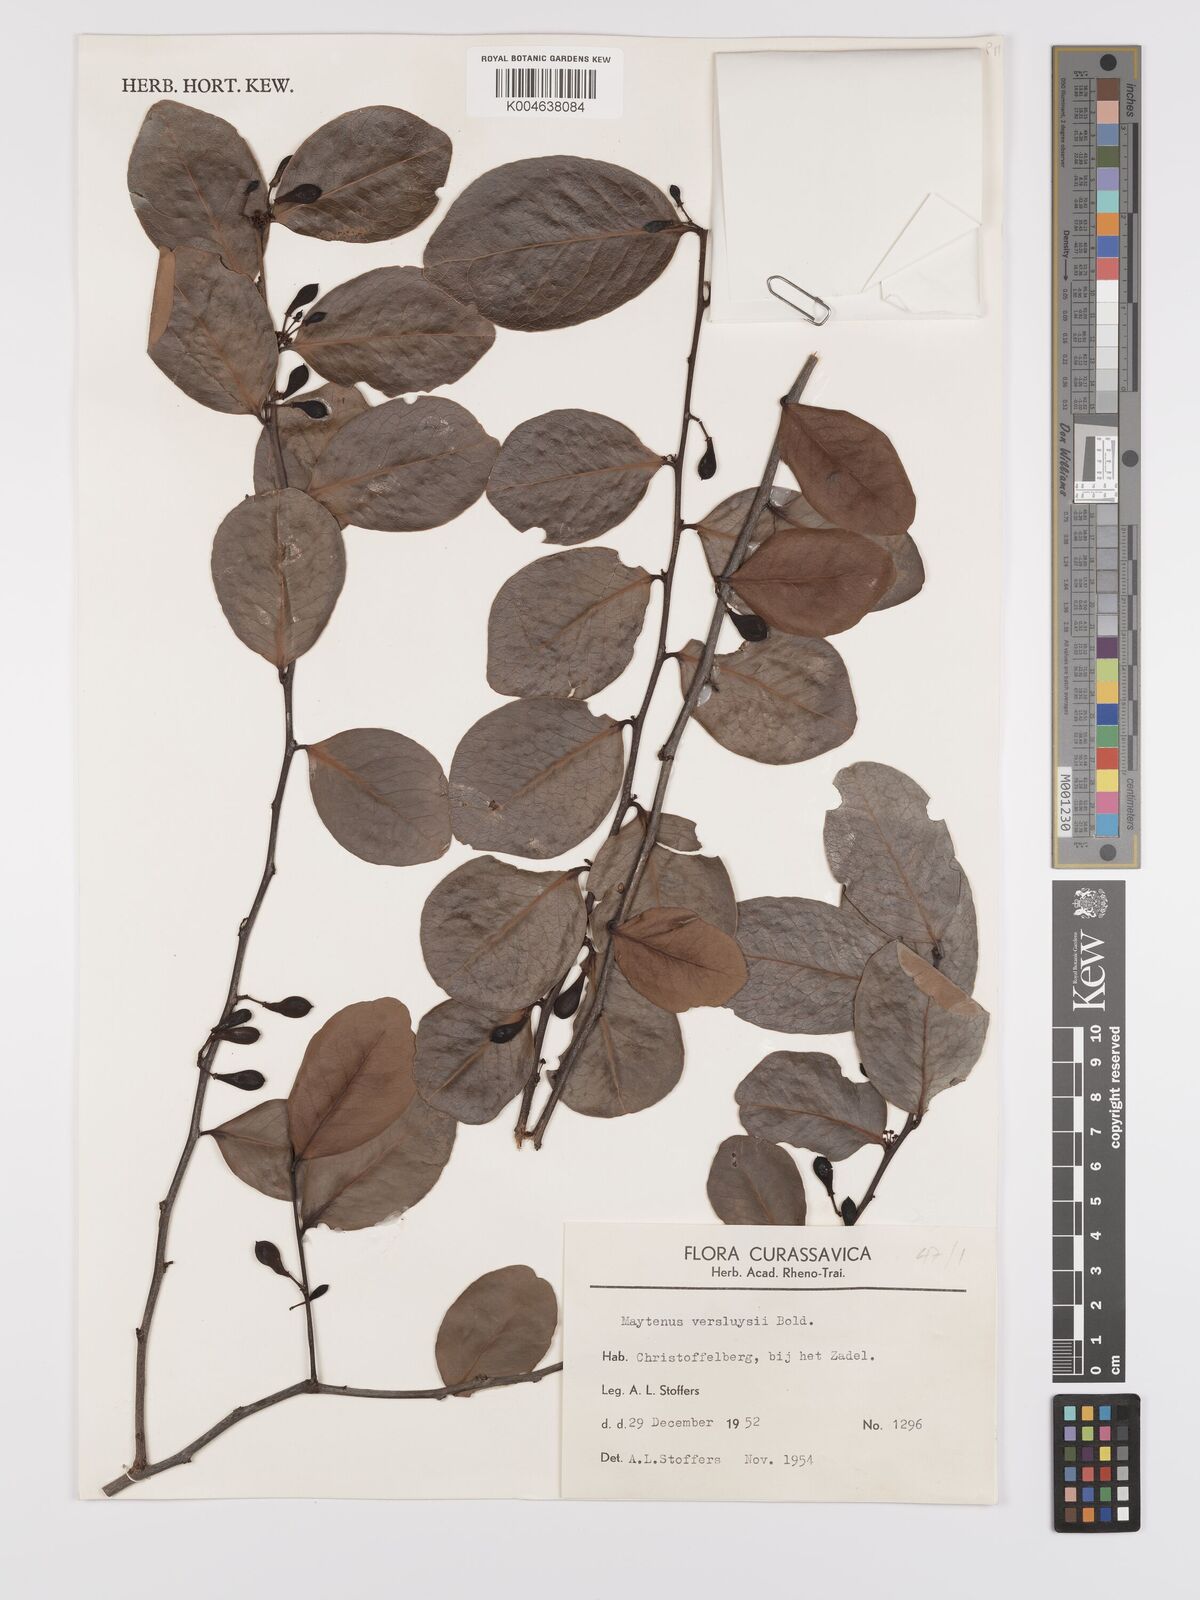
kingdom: Plantae
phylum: Tracheophyta
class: Magnoliopsida
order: Celastrales
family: Celastraceae
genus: Monteverdia
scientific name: Monteverdia versluysii
